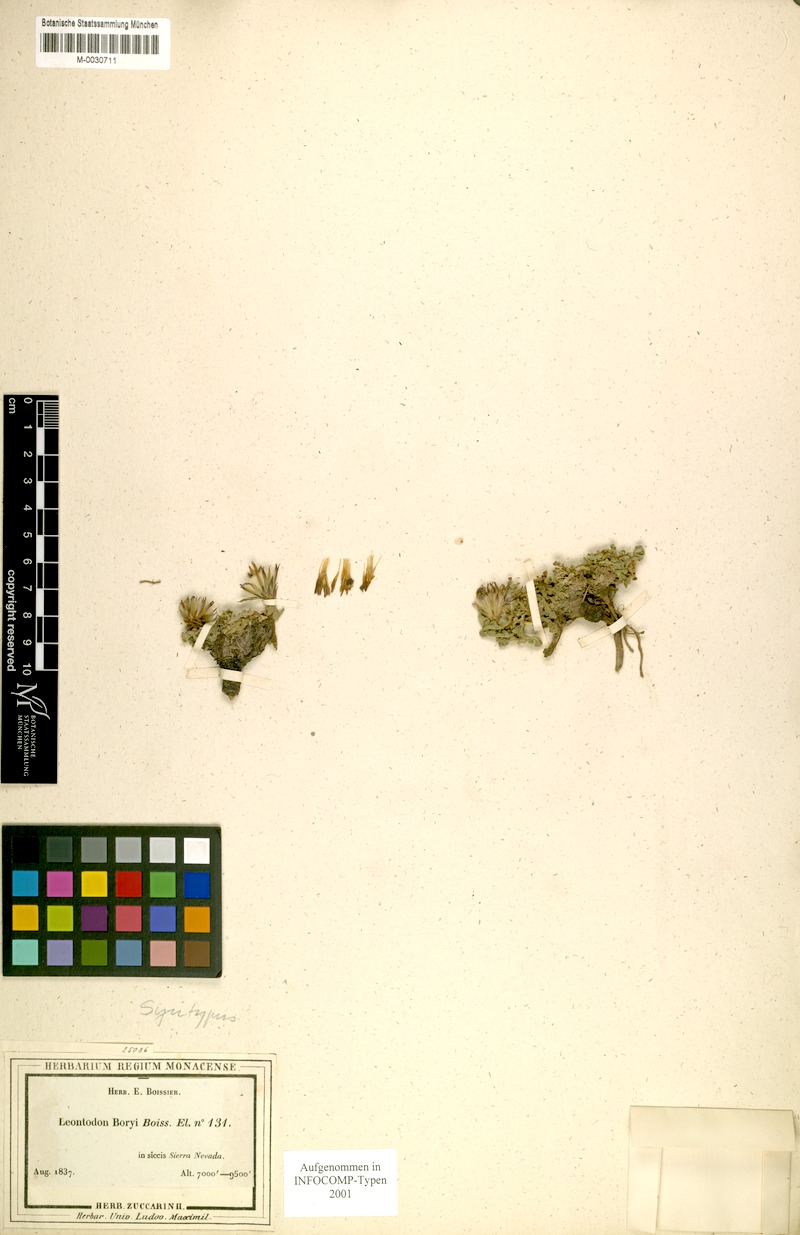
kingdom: Plantae
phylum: Tracheophyta
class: Magnoliopsida
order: Asterales
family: Asteraceae
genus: Leontodon
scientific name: Leontodon boryi
